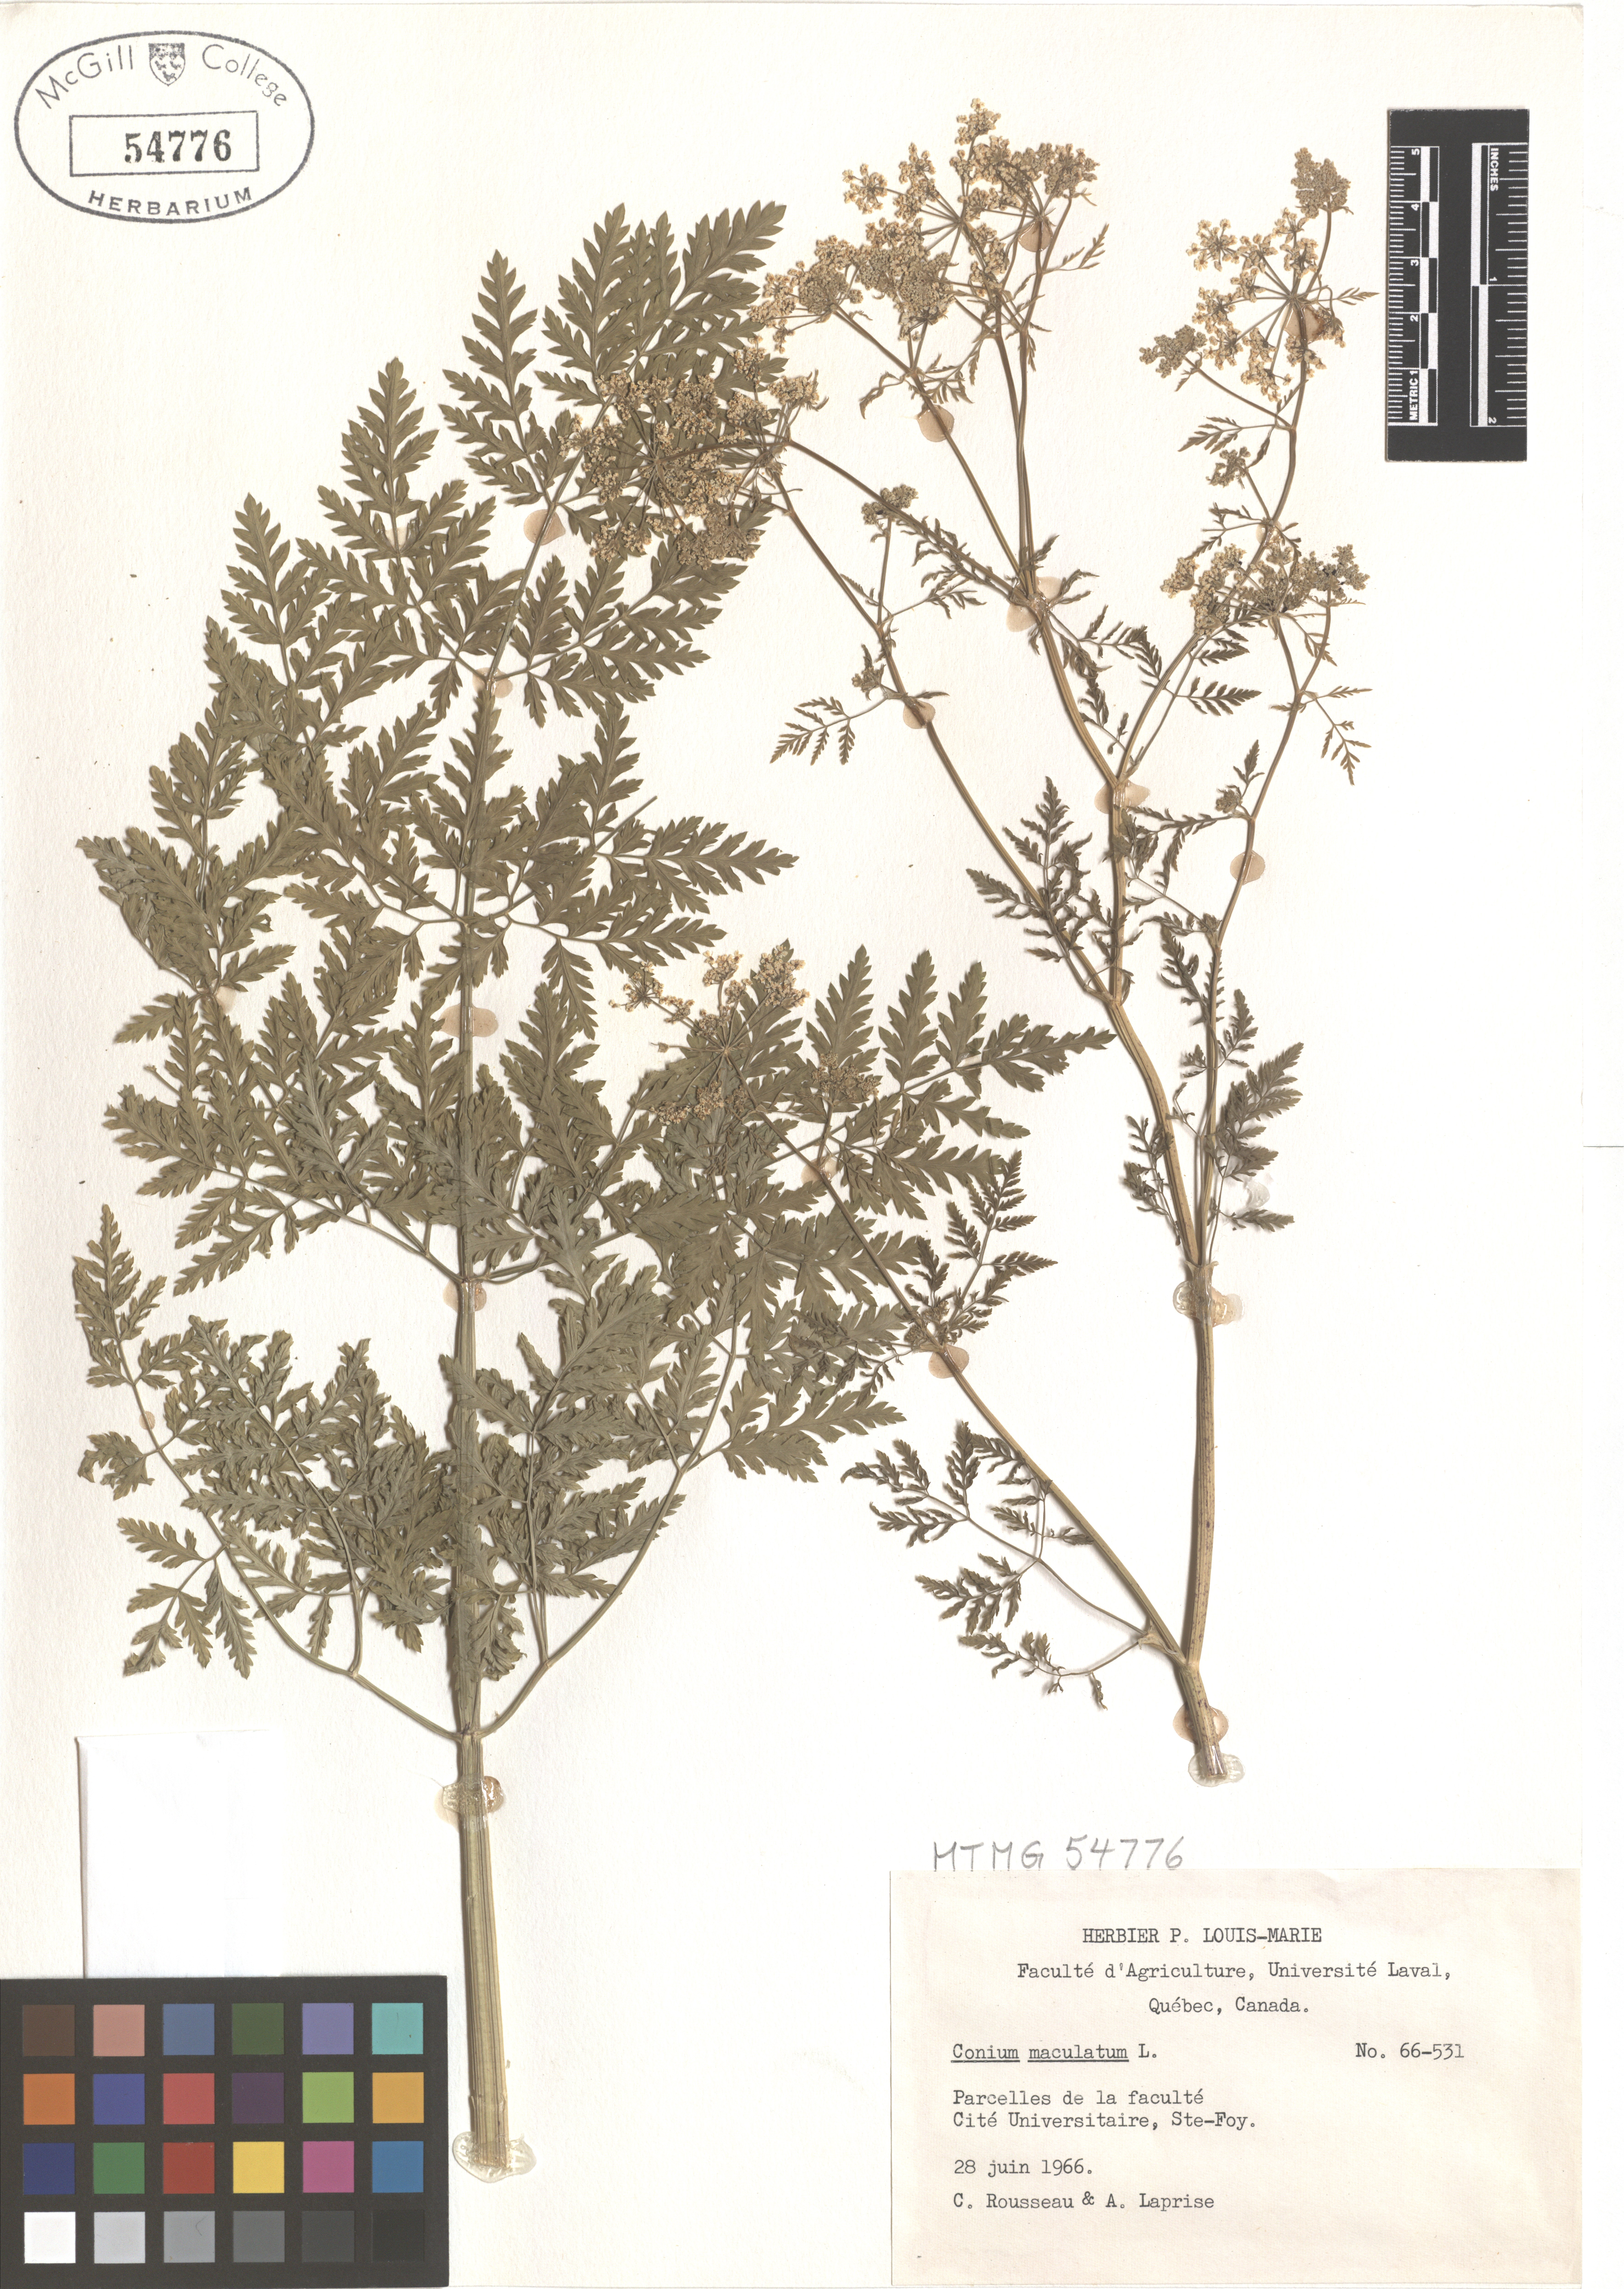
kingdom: Plantae
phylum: Tracheophyta
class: Magnoliopsida
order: Apiales
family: Apiaceae
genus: Conium
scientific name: Conium maculatum
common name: Hemlock
